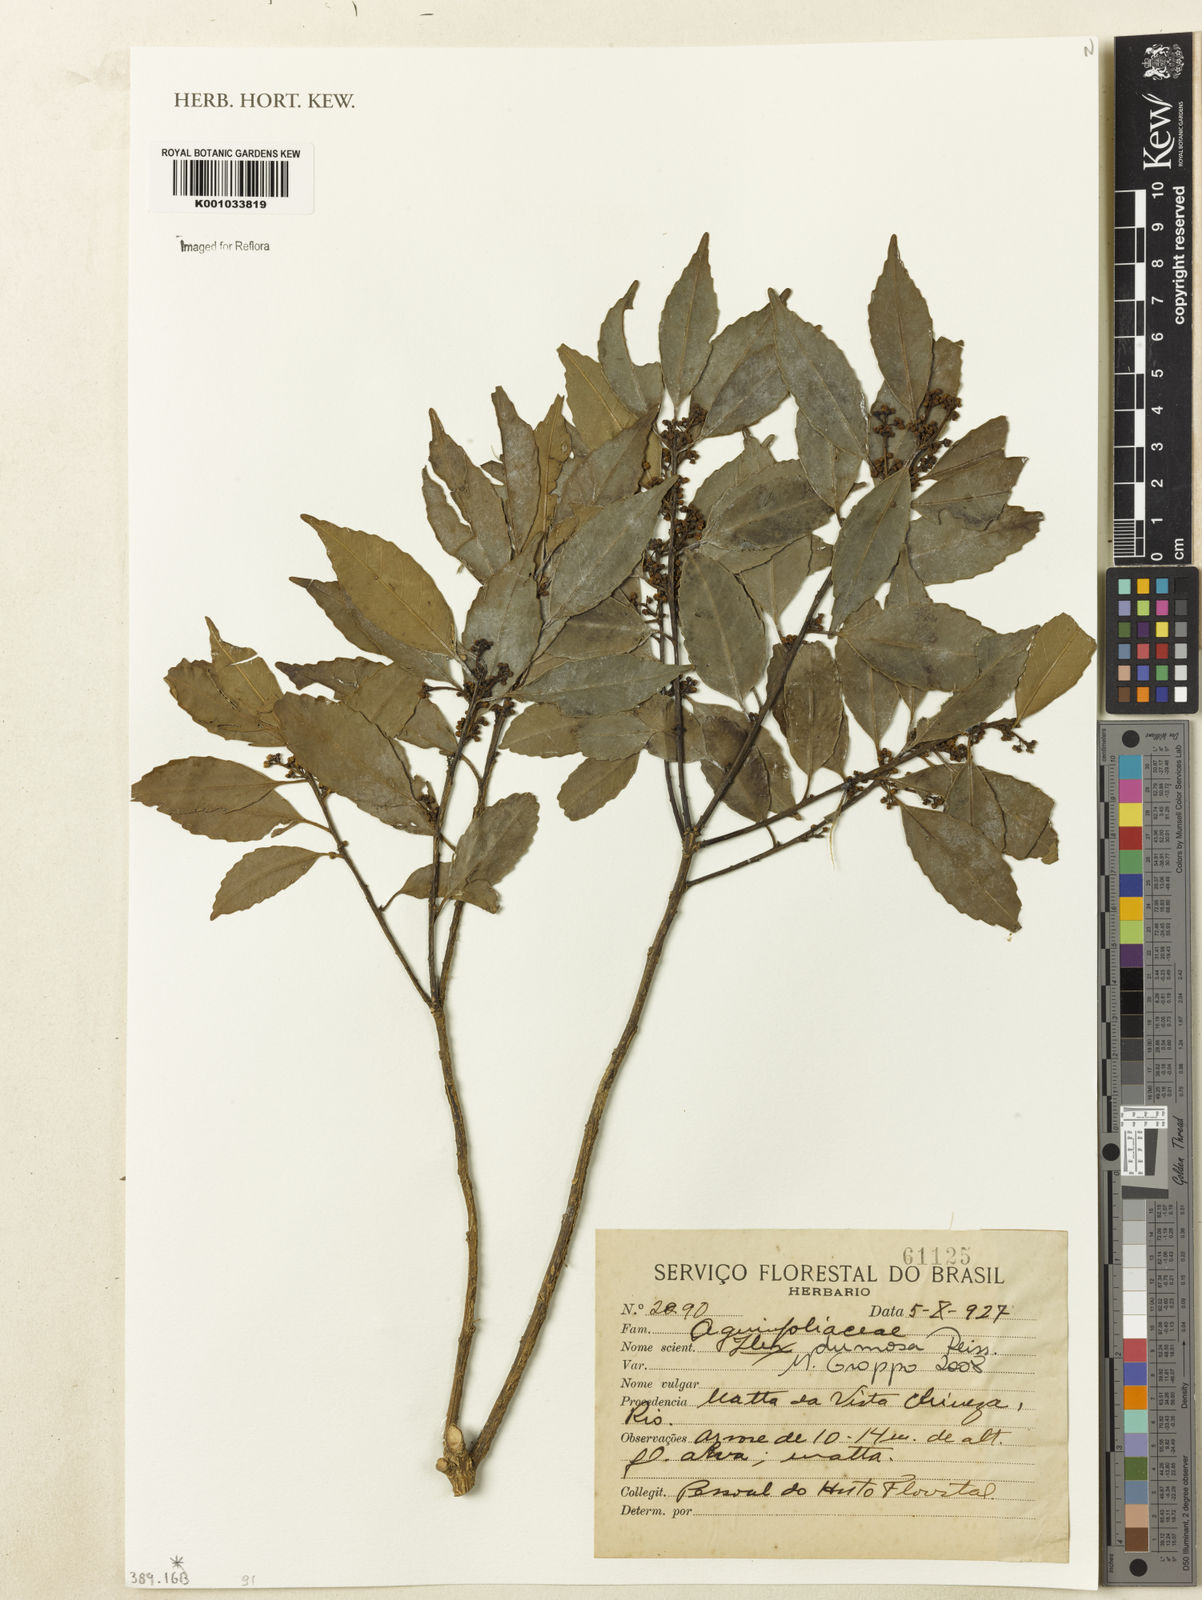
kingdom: Plantae
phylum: Tracheophyta
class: Magnoliopsida
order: Aquifoliales
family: Aquifoliaceae
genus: Ilex
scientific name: Ilex dumosa
